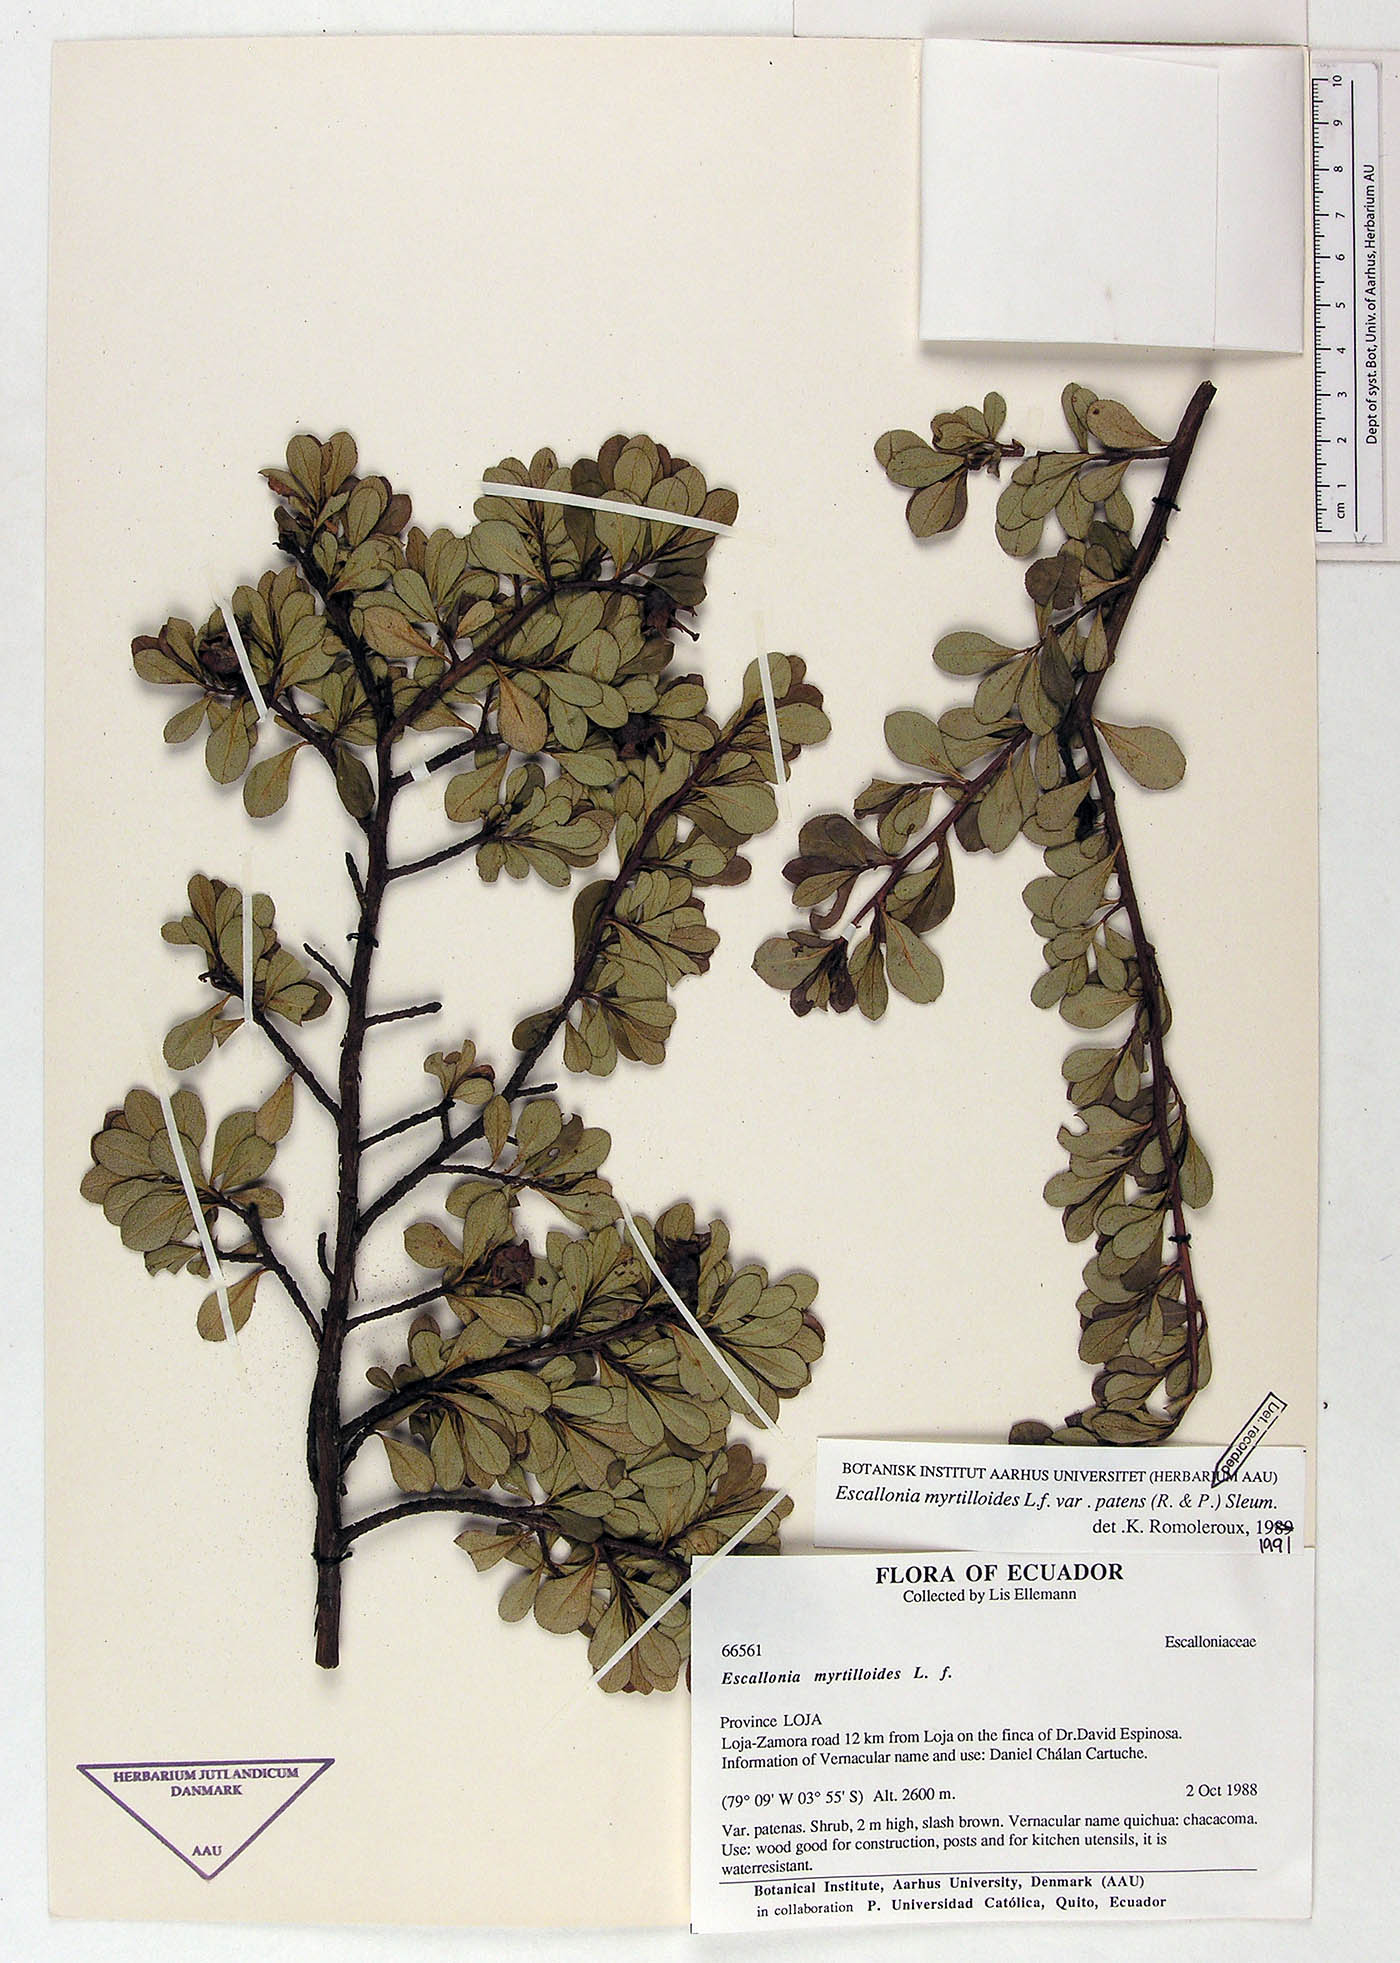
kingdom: Plantae
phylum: Tracheophyta
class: Magnoliopsida
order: Escalloniales
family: Escalloniaceae
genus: Escallonia
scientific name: Escallonia myrtilloides
